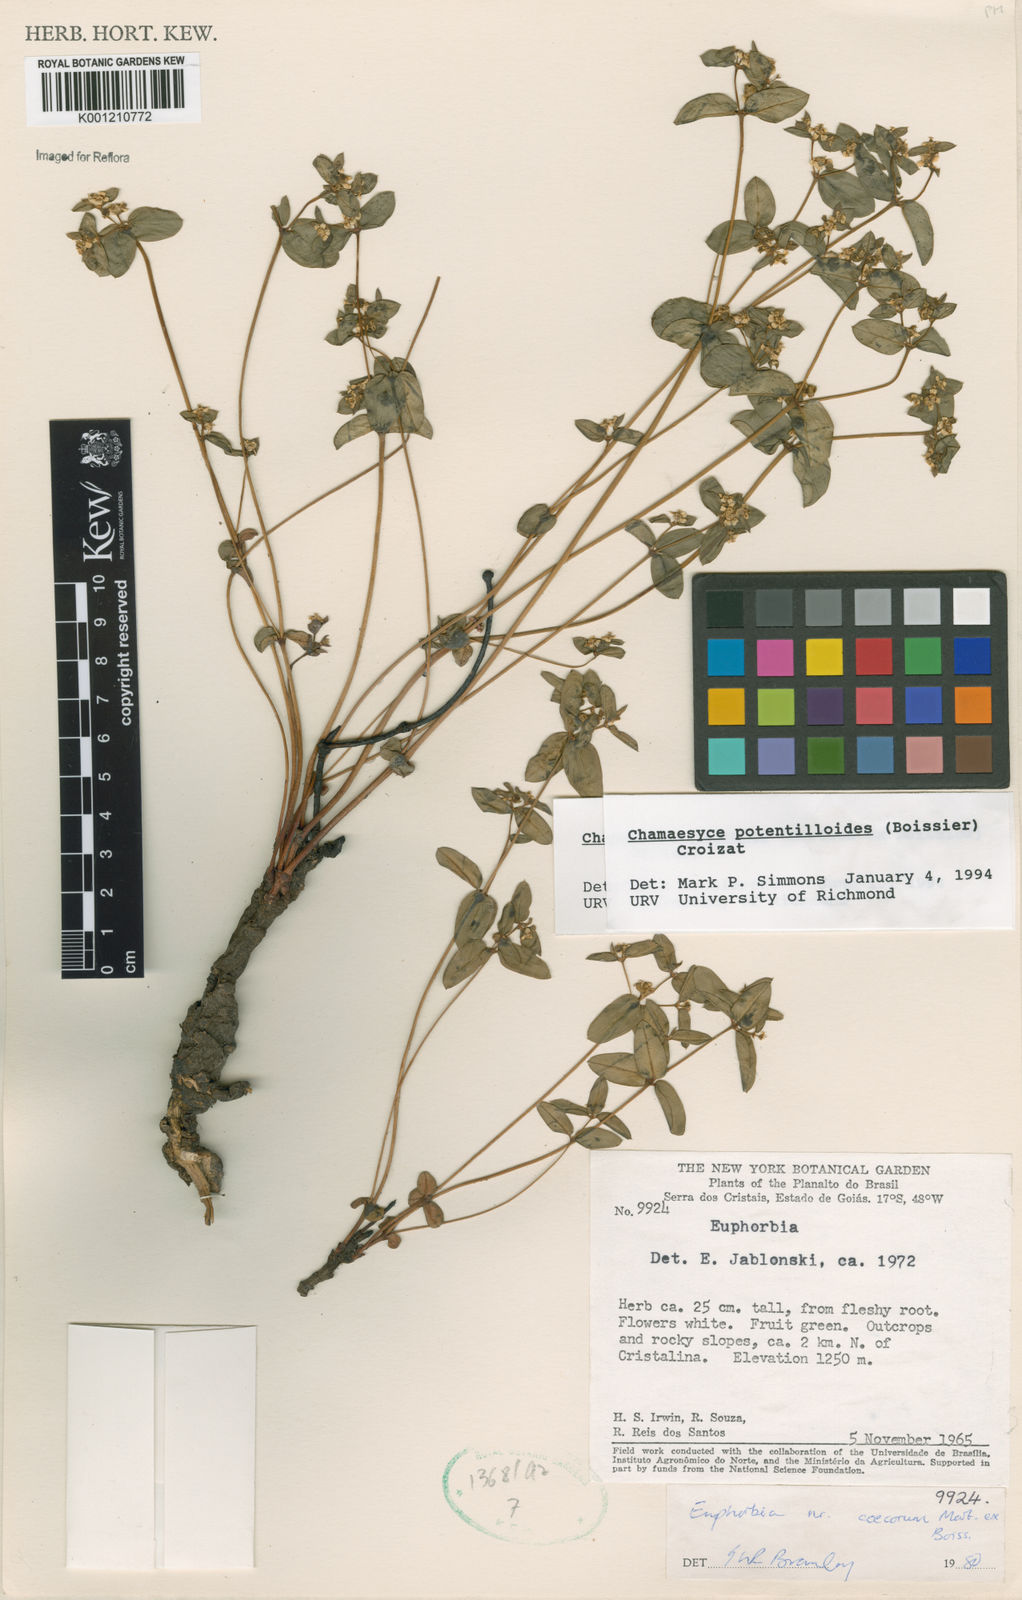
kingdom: Plantae
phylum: Tracheophyta
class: Magnoliopsida
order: Malpighiales
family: Euphorbiaceae
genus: Euphorbia
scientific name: Euphorbia potentilloides
